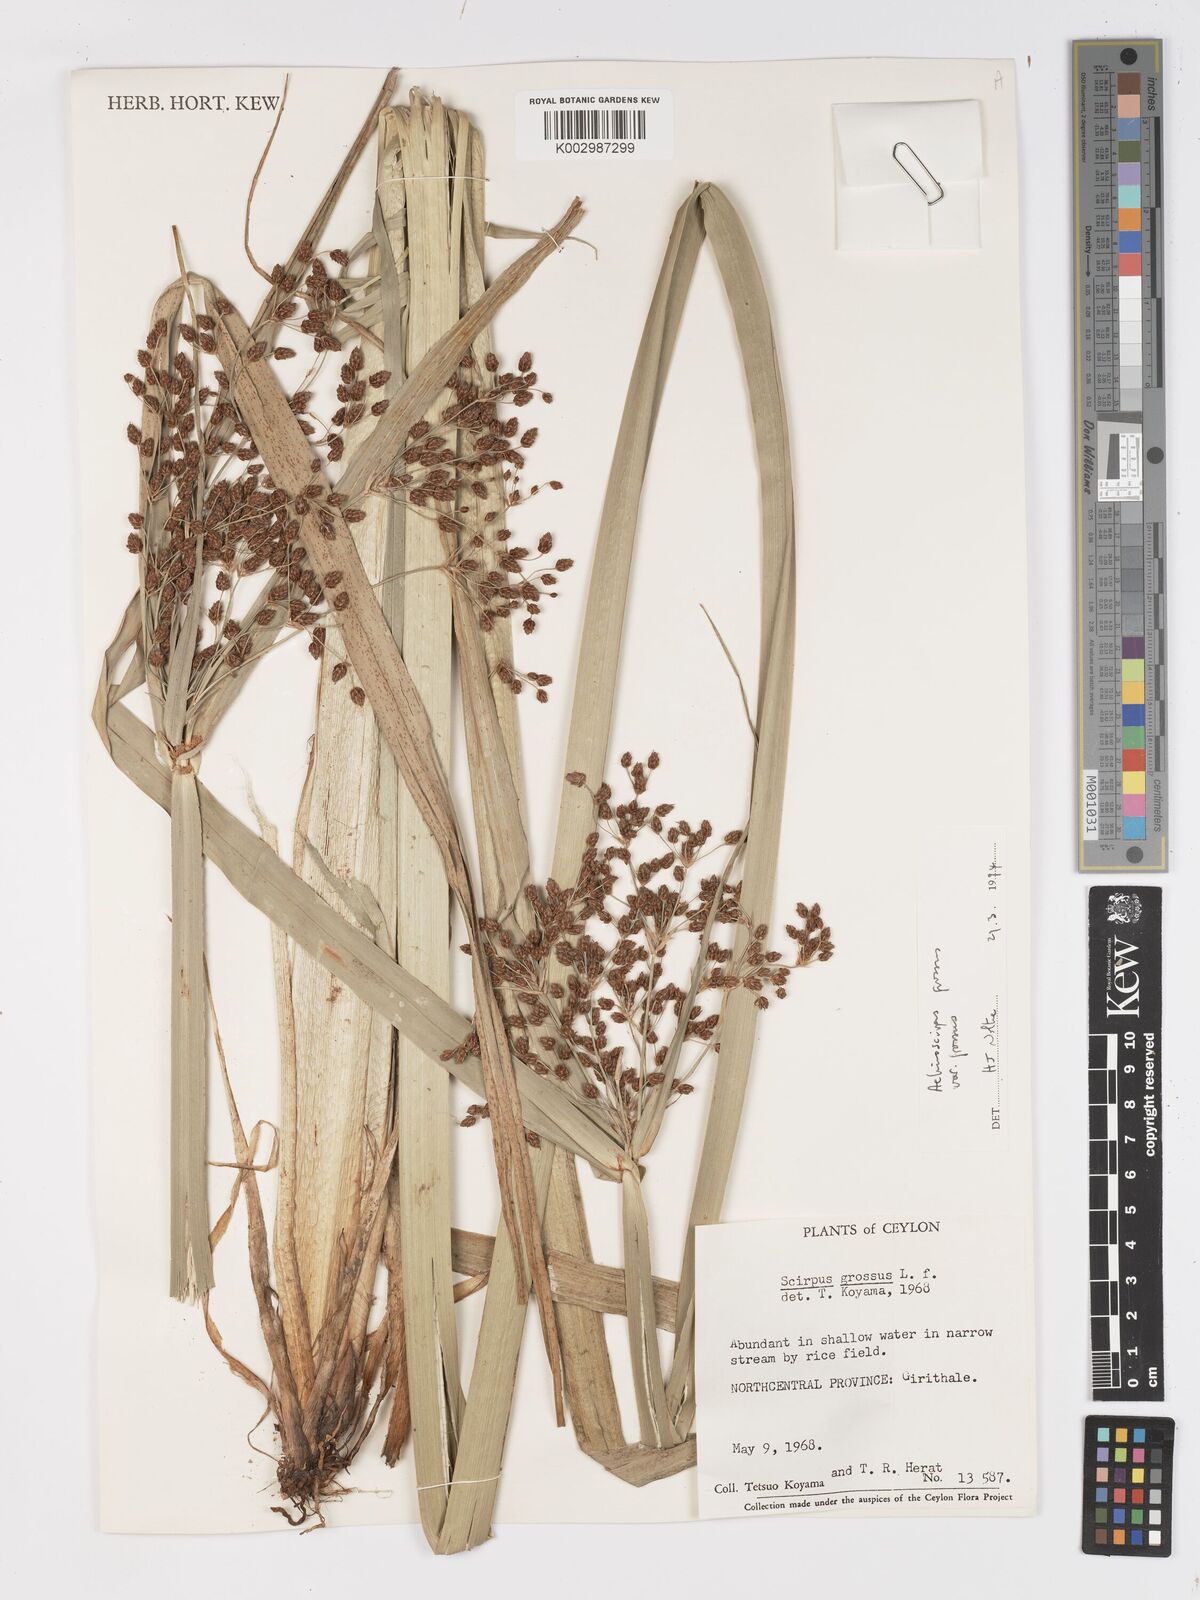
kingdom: Plantae
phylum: Tracheophyta
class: Liliopsida
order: Poales
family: Cyperaceae
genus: Actinoscirpus
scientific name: Actinoscirpus grossus
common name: Giant bur rush
